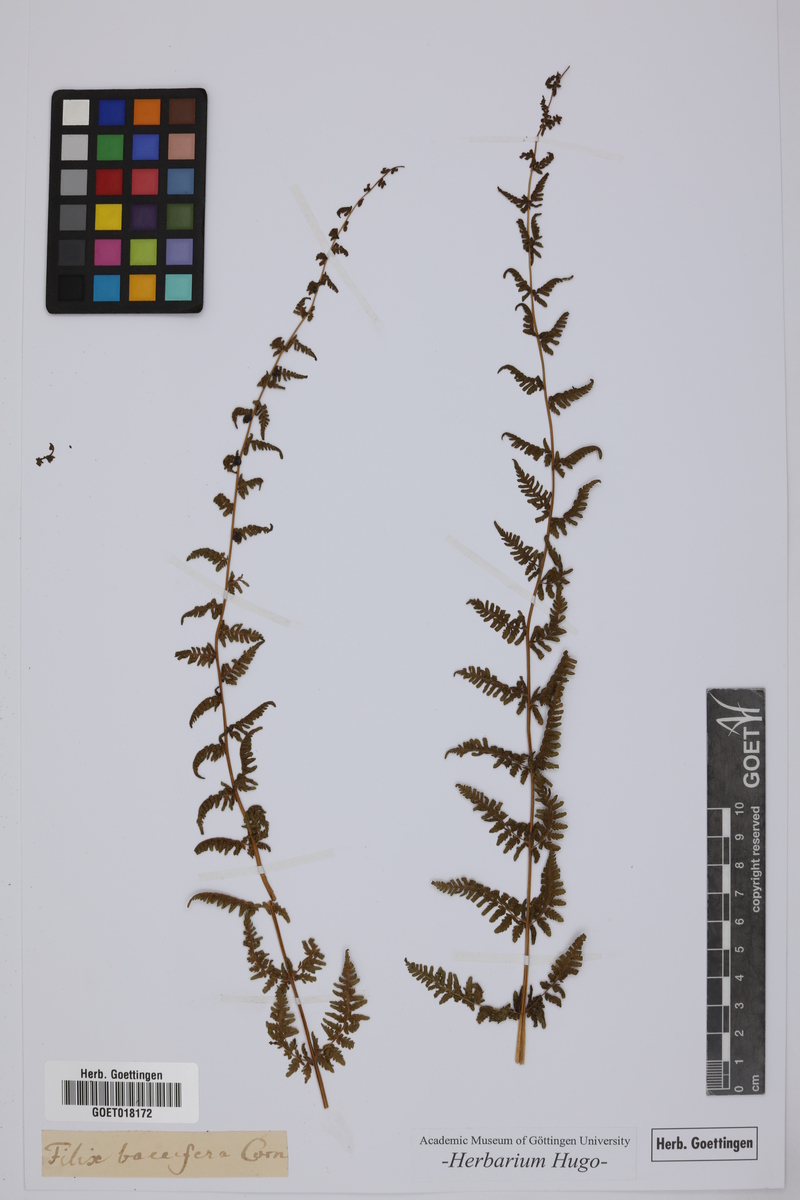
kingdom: Plantae
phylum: Tracheophyta
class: Polypodiopsida
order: Polypodiales
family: Cystopteridaceae
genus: Cystopteris
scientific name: Cystopteris bulbifera
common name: Bulblet bladder fern
